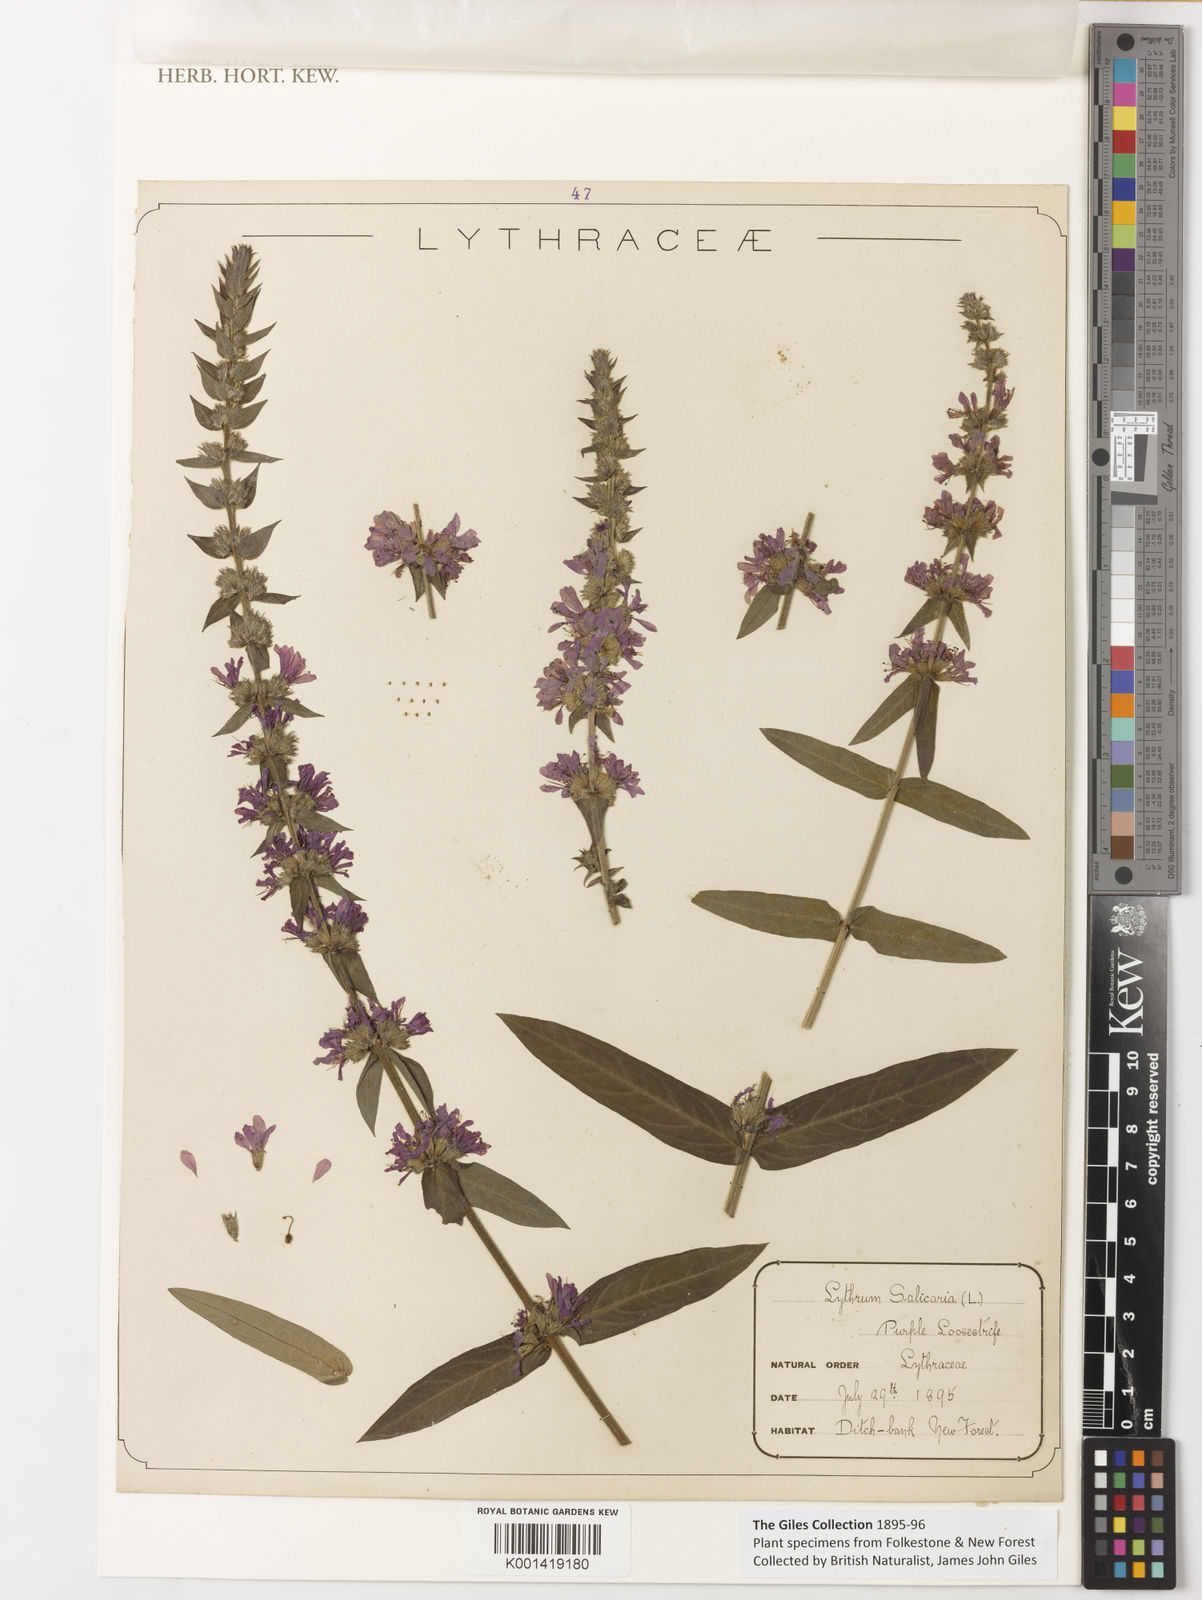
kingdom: Plantae
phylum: Tracheophyta
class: Magnoliopsida
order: Myrtales
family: Lythraceae
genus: Lythrum
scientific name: Lythrum salicaria
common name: Purple loosestrife
